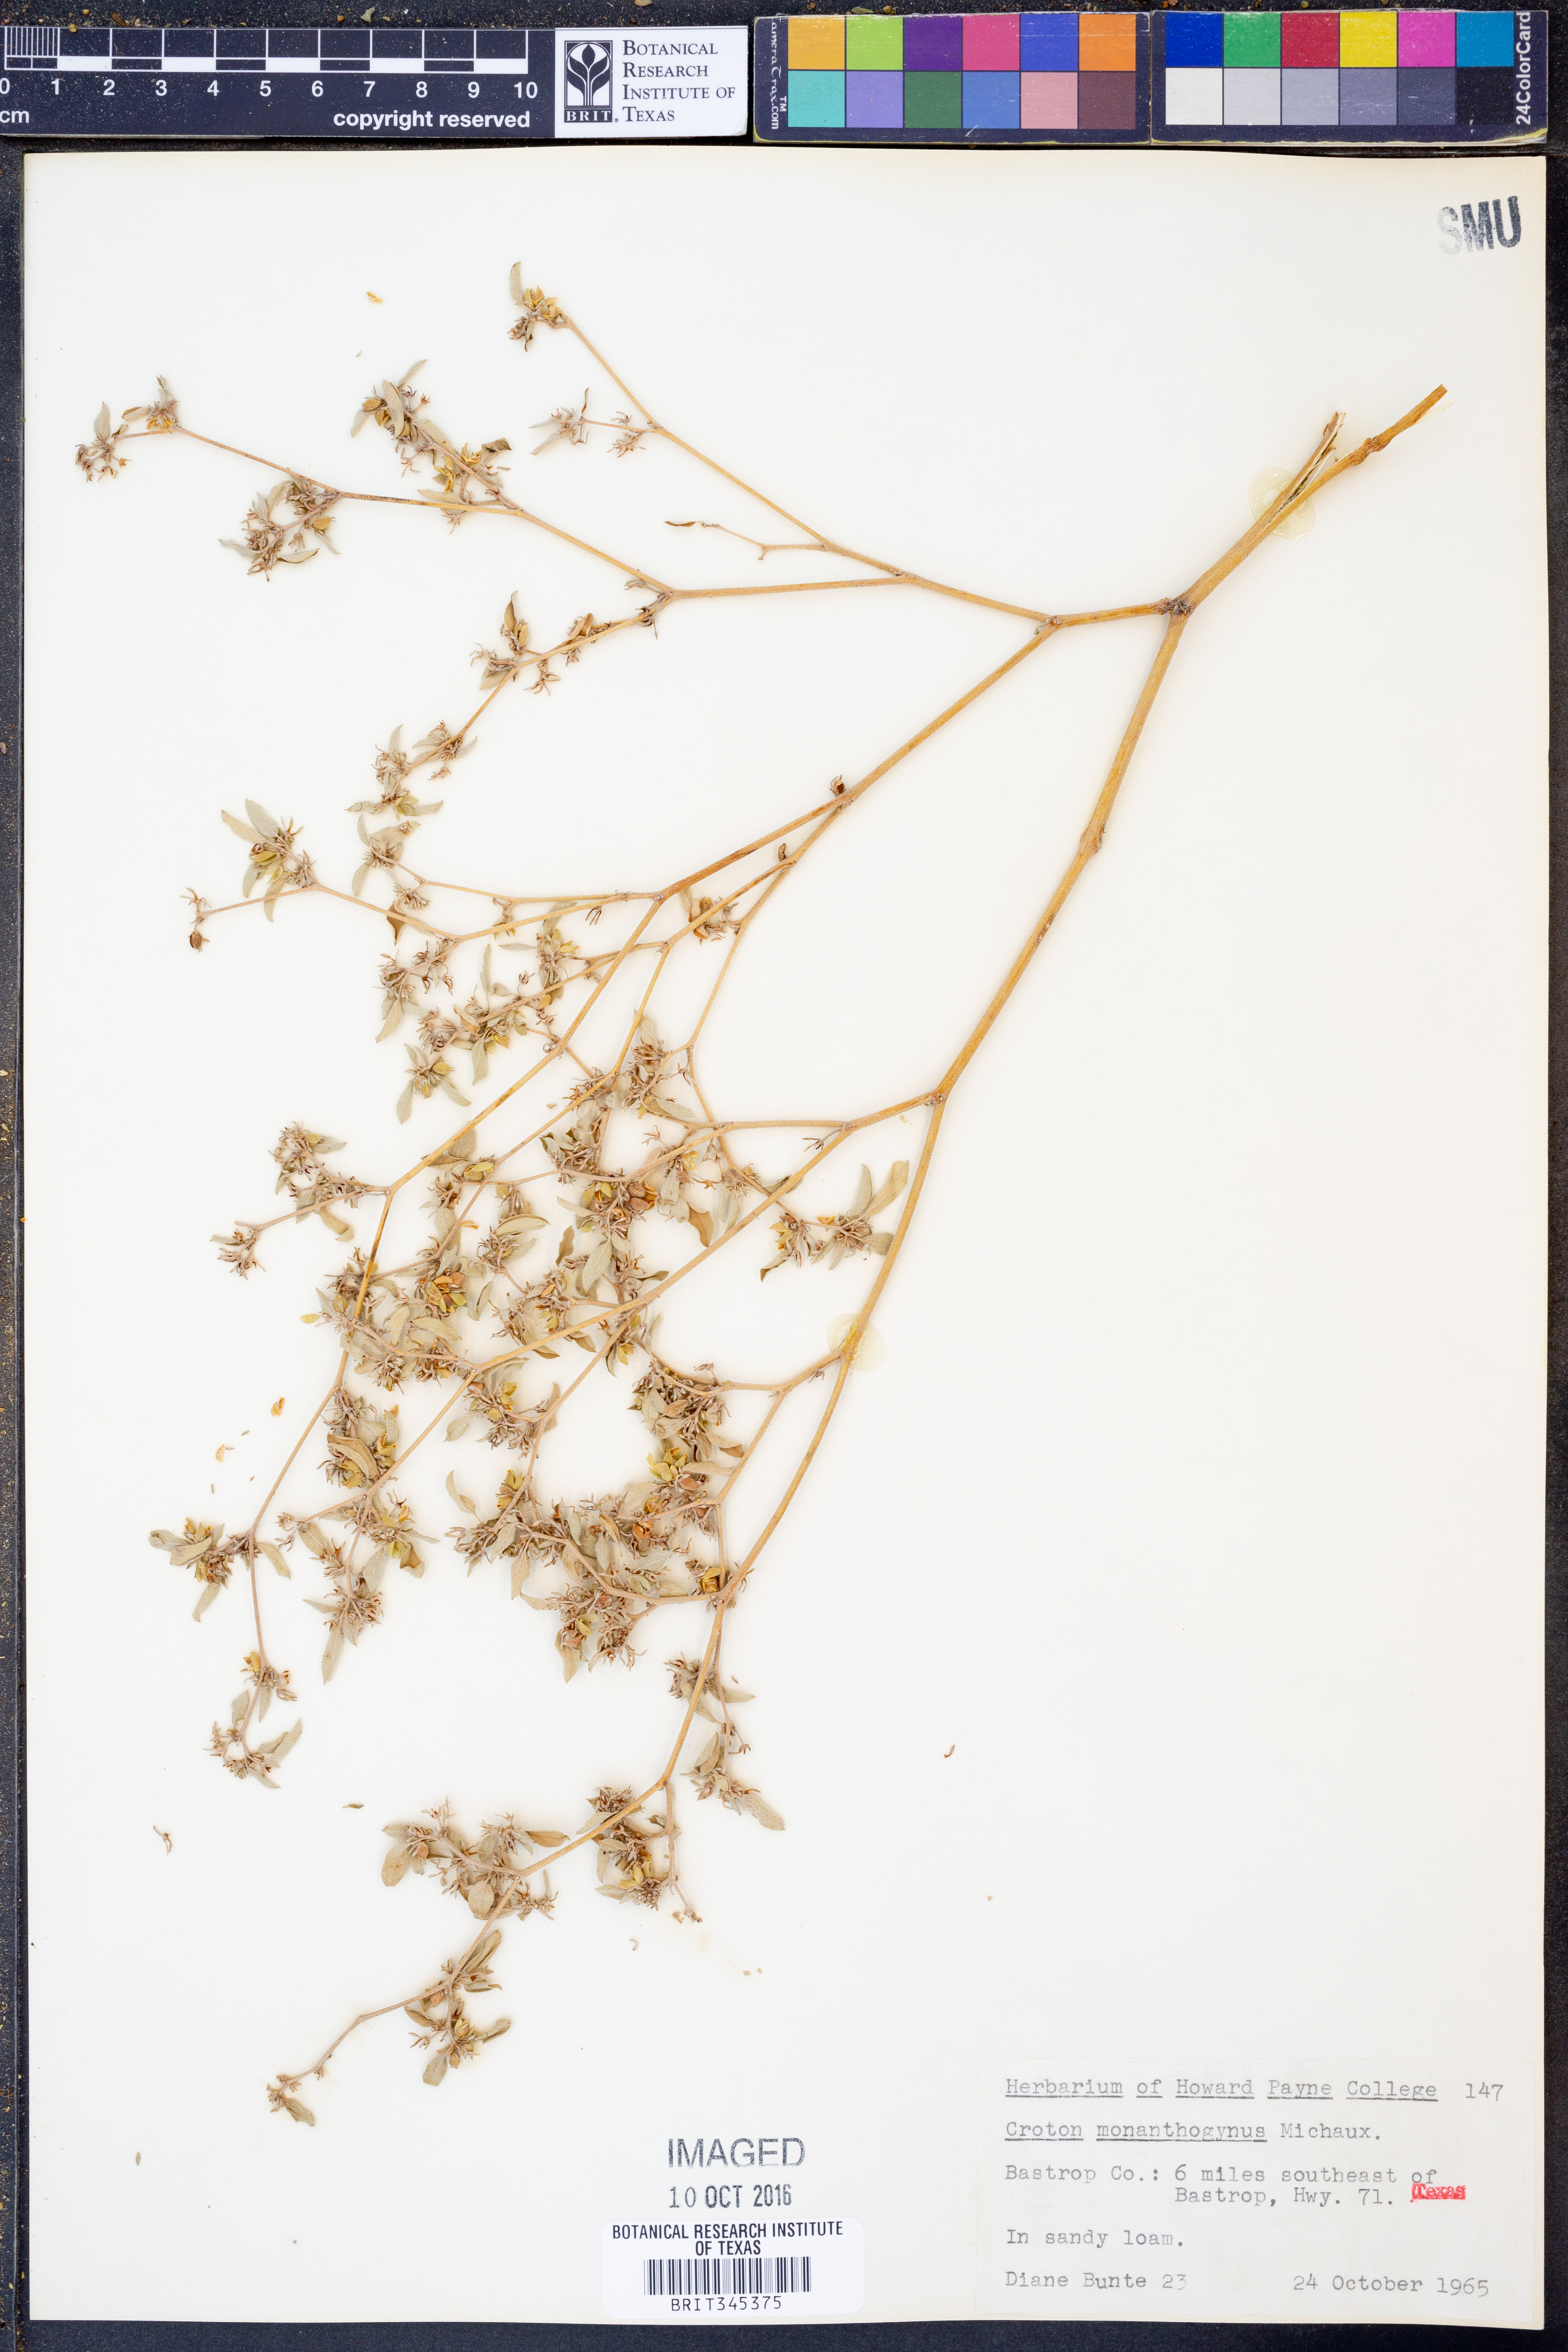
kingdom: Plantae
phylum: Tracheophyta
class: Magnoliopsida
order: Malpighiales
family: Euphorbiaceae
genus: Croton
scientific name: Croton monanthogynus
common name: One-seed croton
